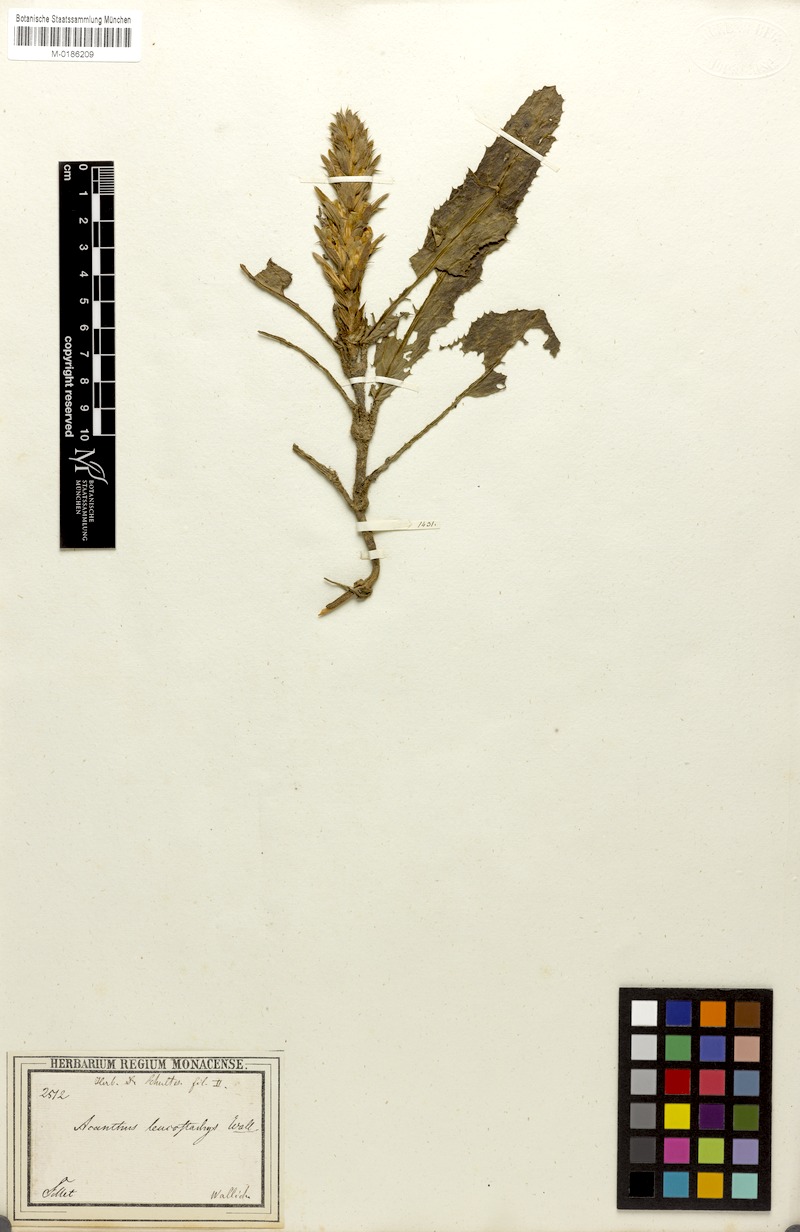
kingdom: Plantae
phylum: Tracheophyta
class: Magnoliopsida
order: Lamiales
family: Acanthaceae
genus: Acanthus
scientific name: Acanthus leucostachyus
